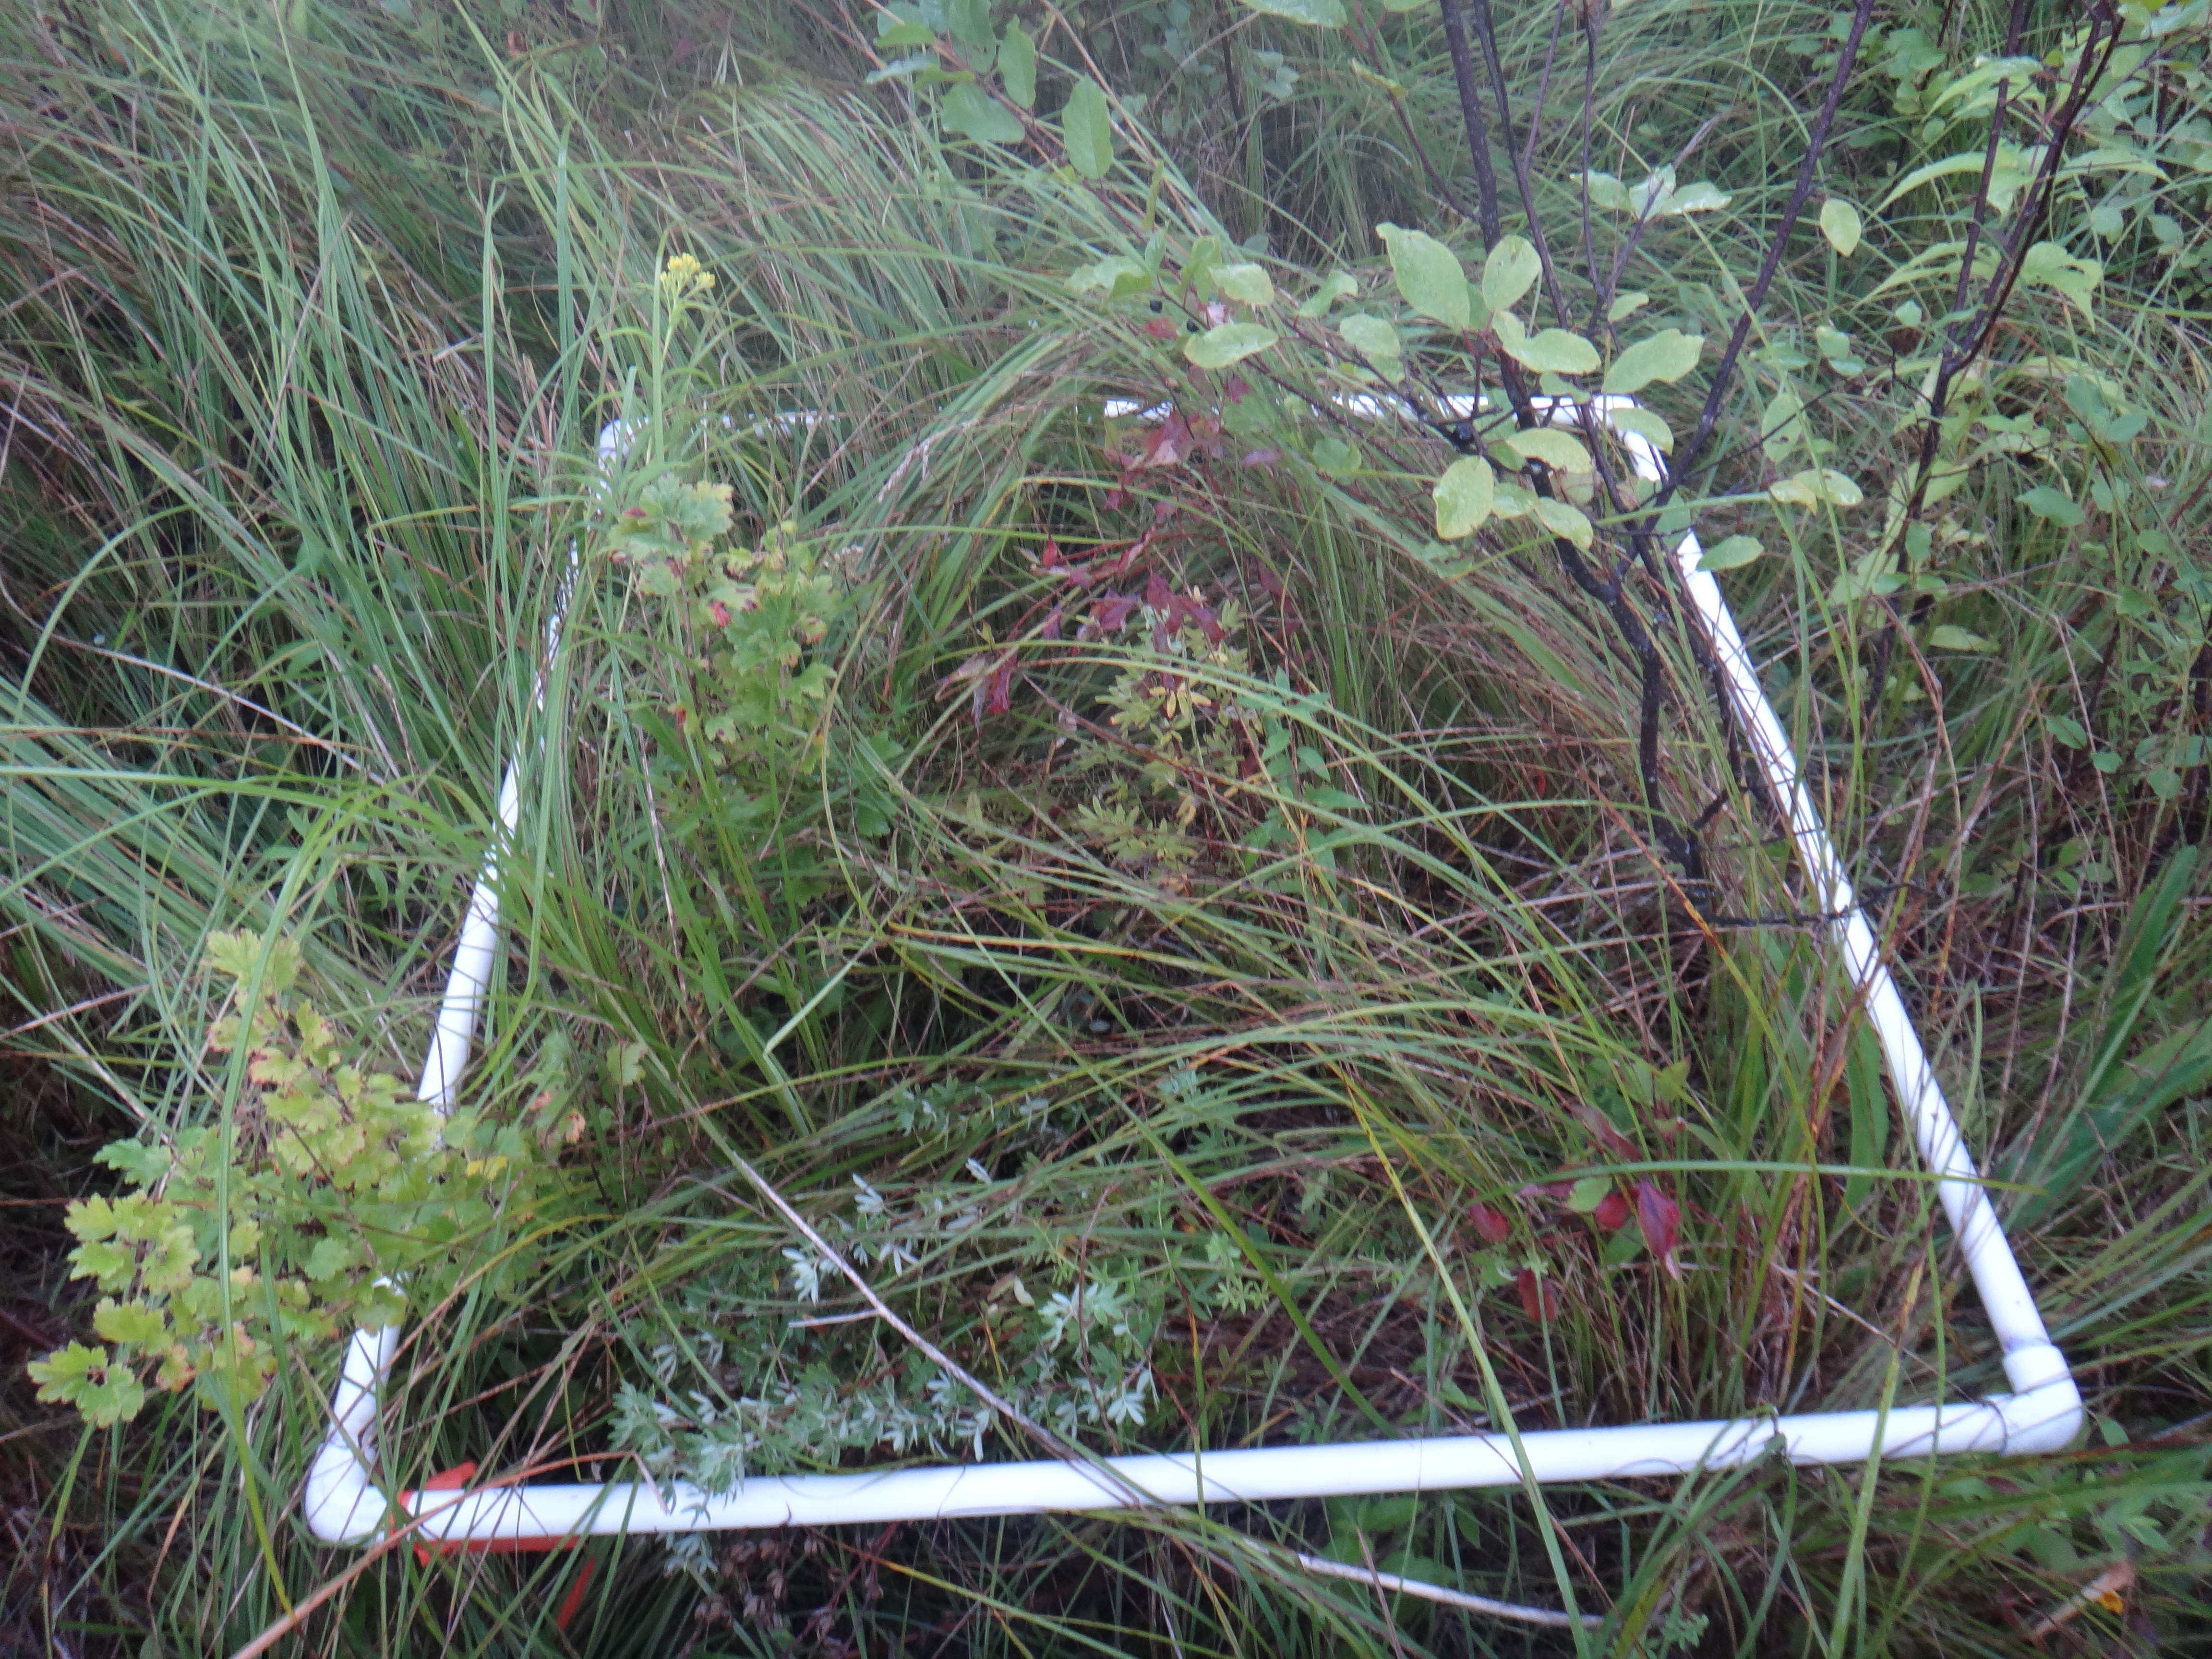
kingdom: Plantae
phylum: Tracheophyta
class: Magnoliopsida
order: Rosales
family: Rosaceae
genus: Dasiphora
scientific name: Dasiphora fruticosa
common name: Shrubby cinquefoil
